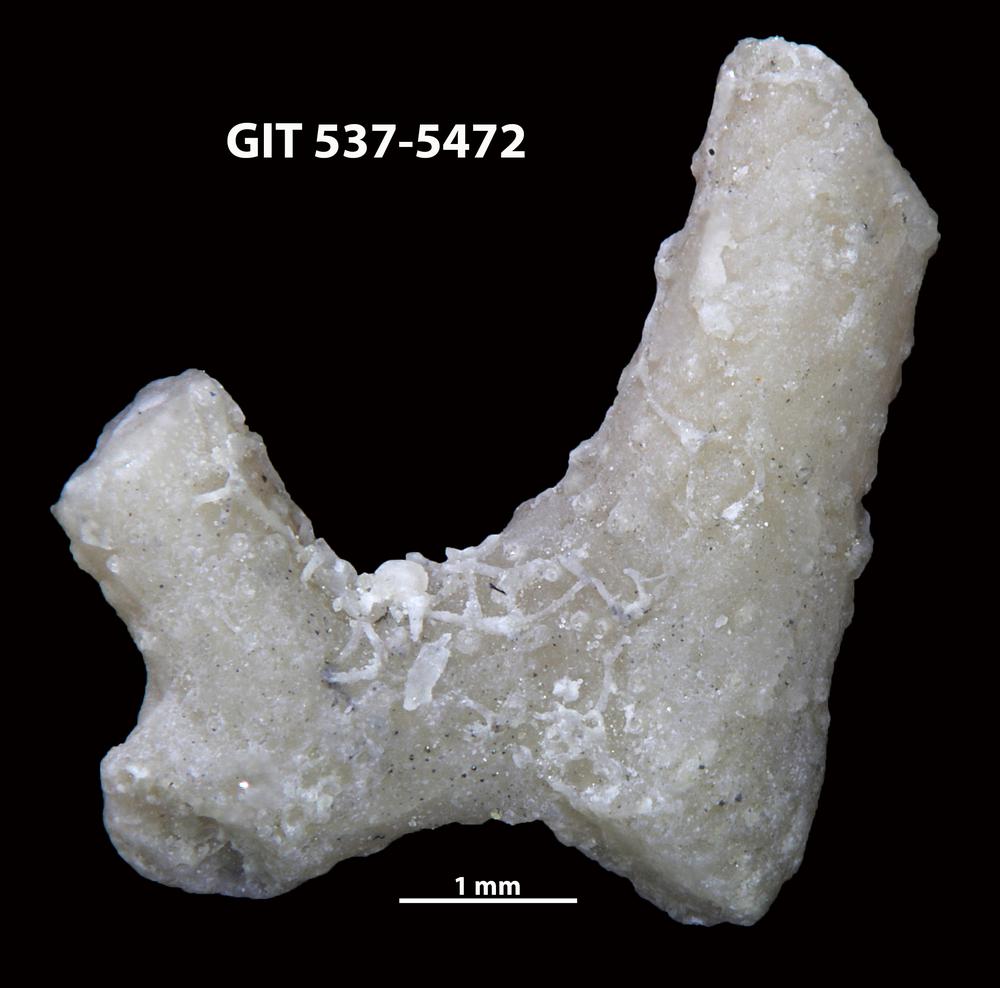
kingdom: Animalia
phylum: Bryozoa
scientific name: Bryozoa
